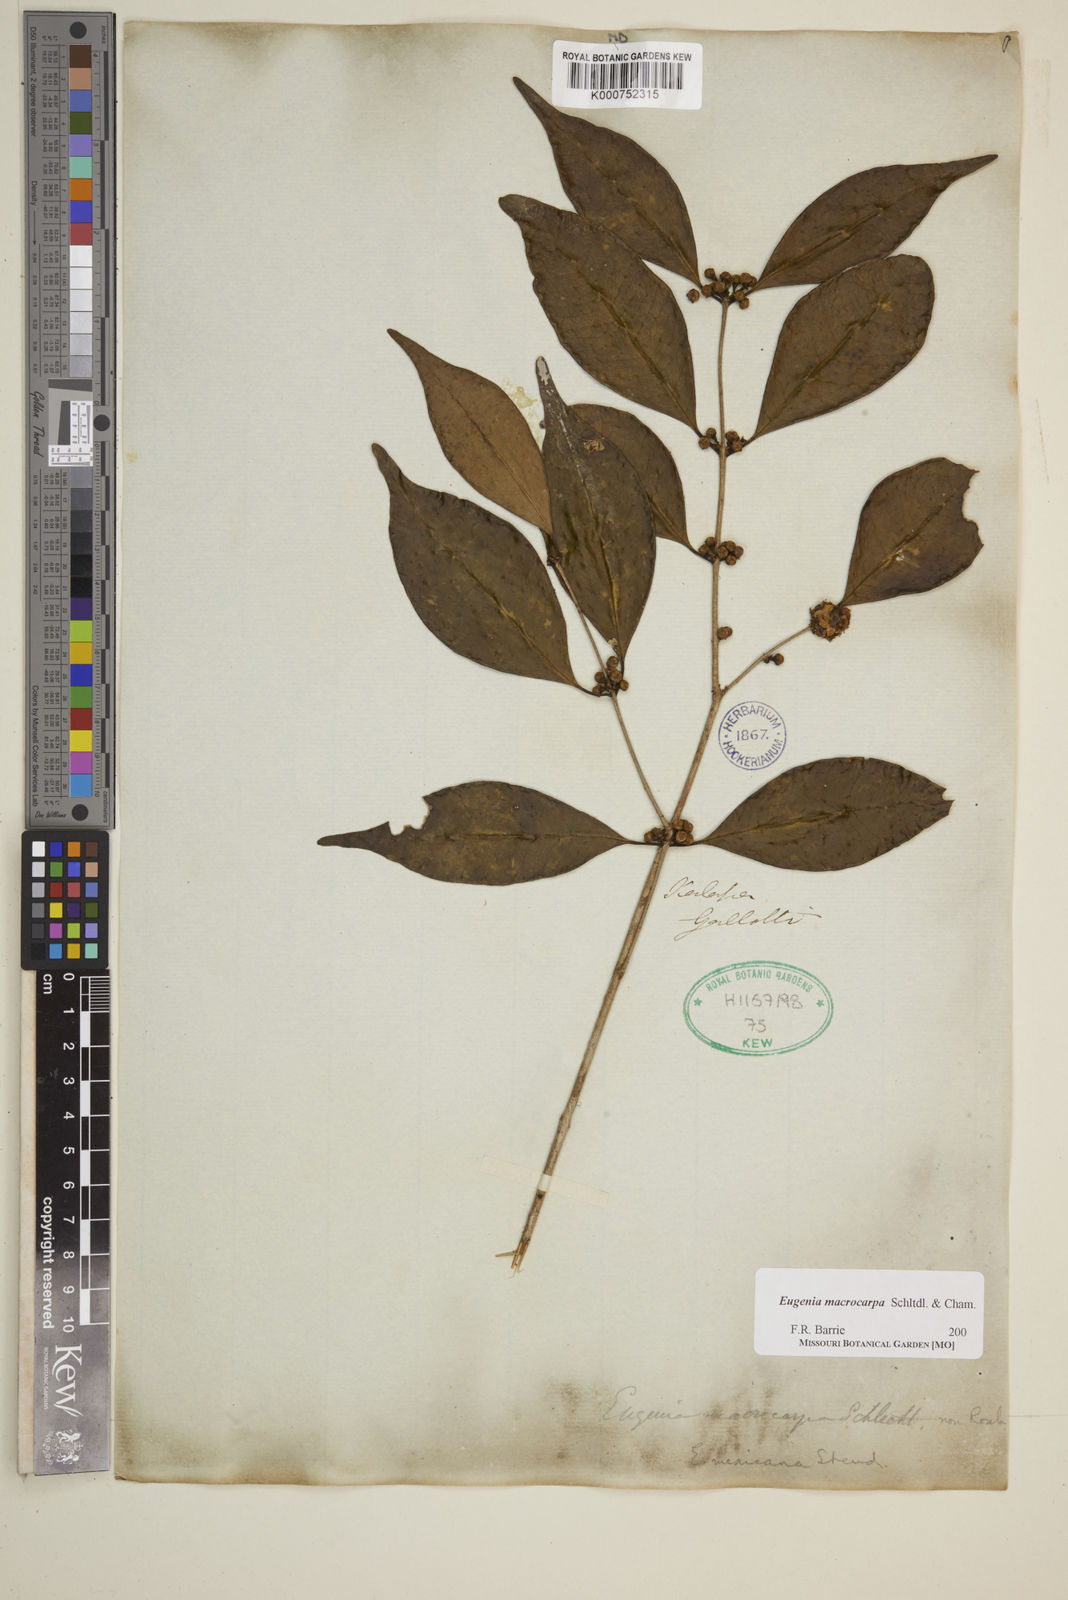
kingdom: Plantae
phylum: Tracheophyta
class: Magnoliopsida
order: Myrtales
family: Myrtaceae
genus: Eugenia
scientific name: Eugenia macrocarpa
